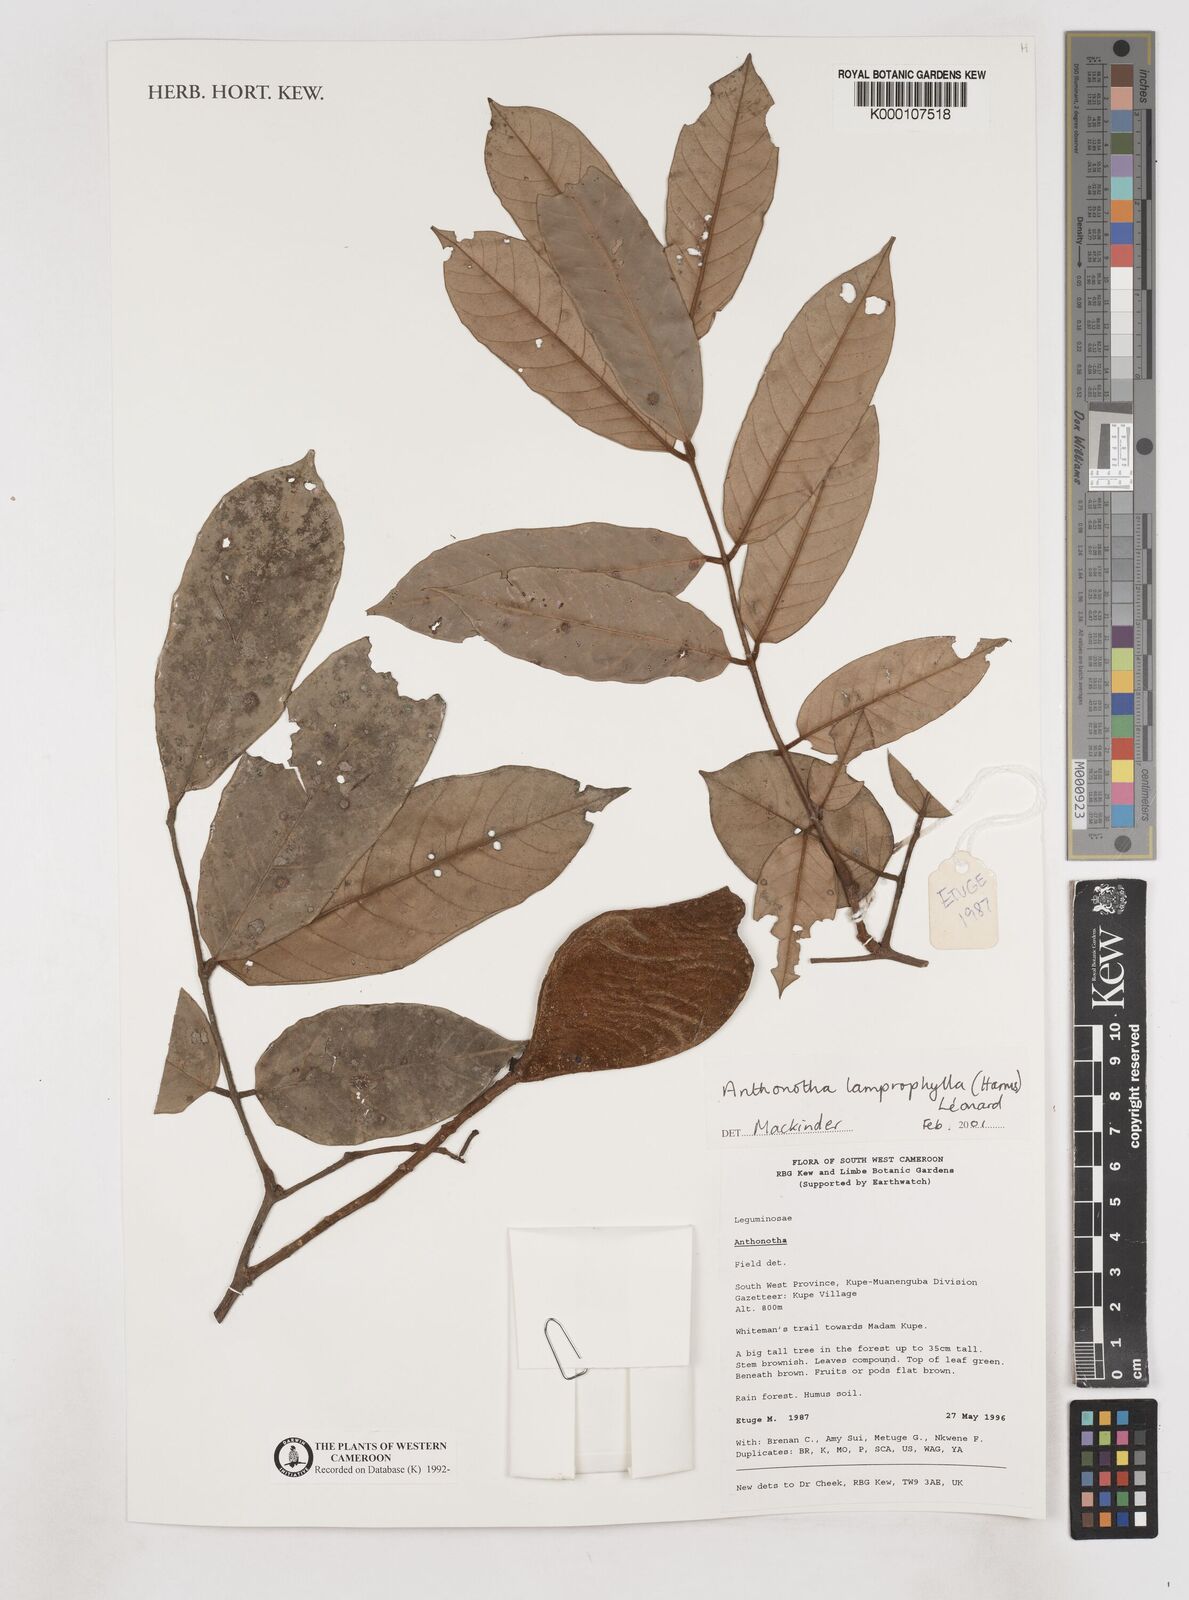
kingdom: Plantae
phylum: Tracheophyta
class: Magnoliopsida
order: Fabales
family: Fabaceae
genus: Anthonotha
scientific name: Anthonotha
